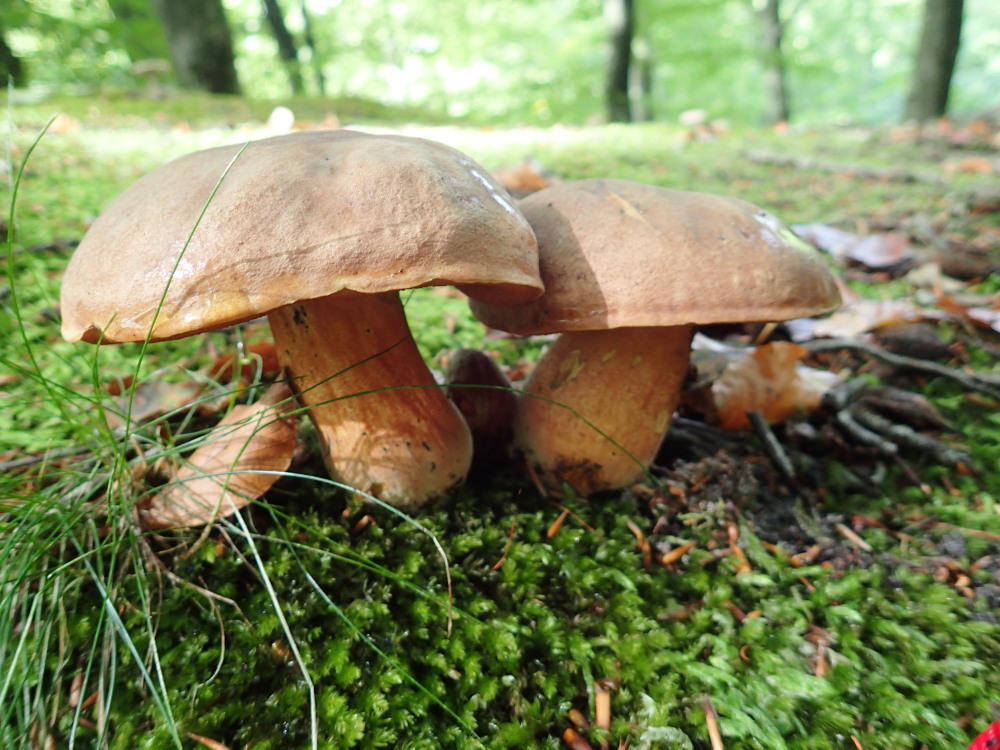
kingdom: Fungi
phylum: Basidiomycota
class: Agaricomycetes
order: Boletales
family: Boletaceae
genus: Neoboletus
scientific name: Neoboletus erythropus
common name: punktstokket indigorørhat
